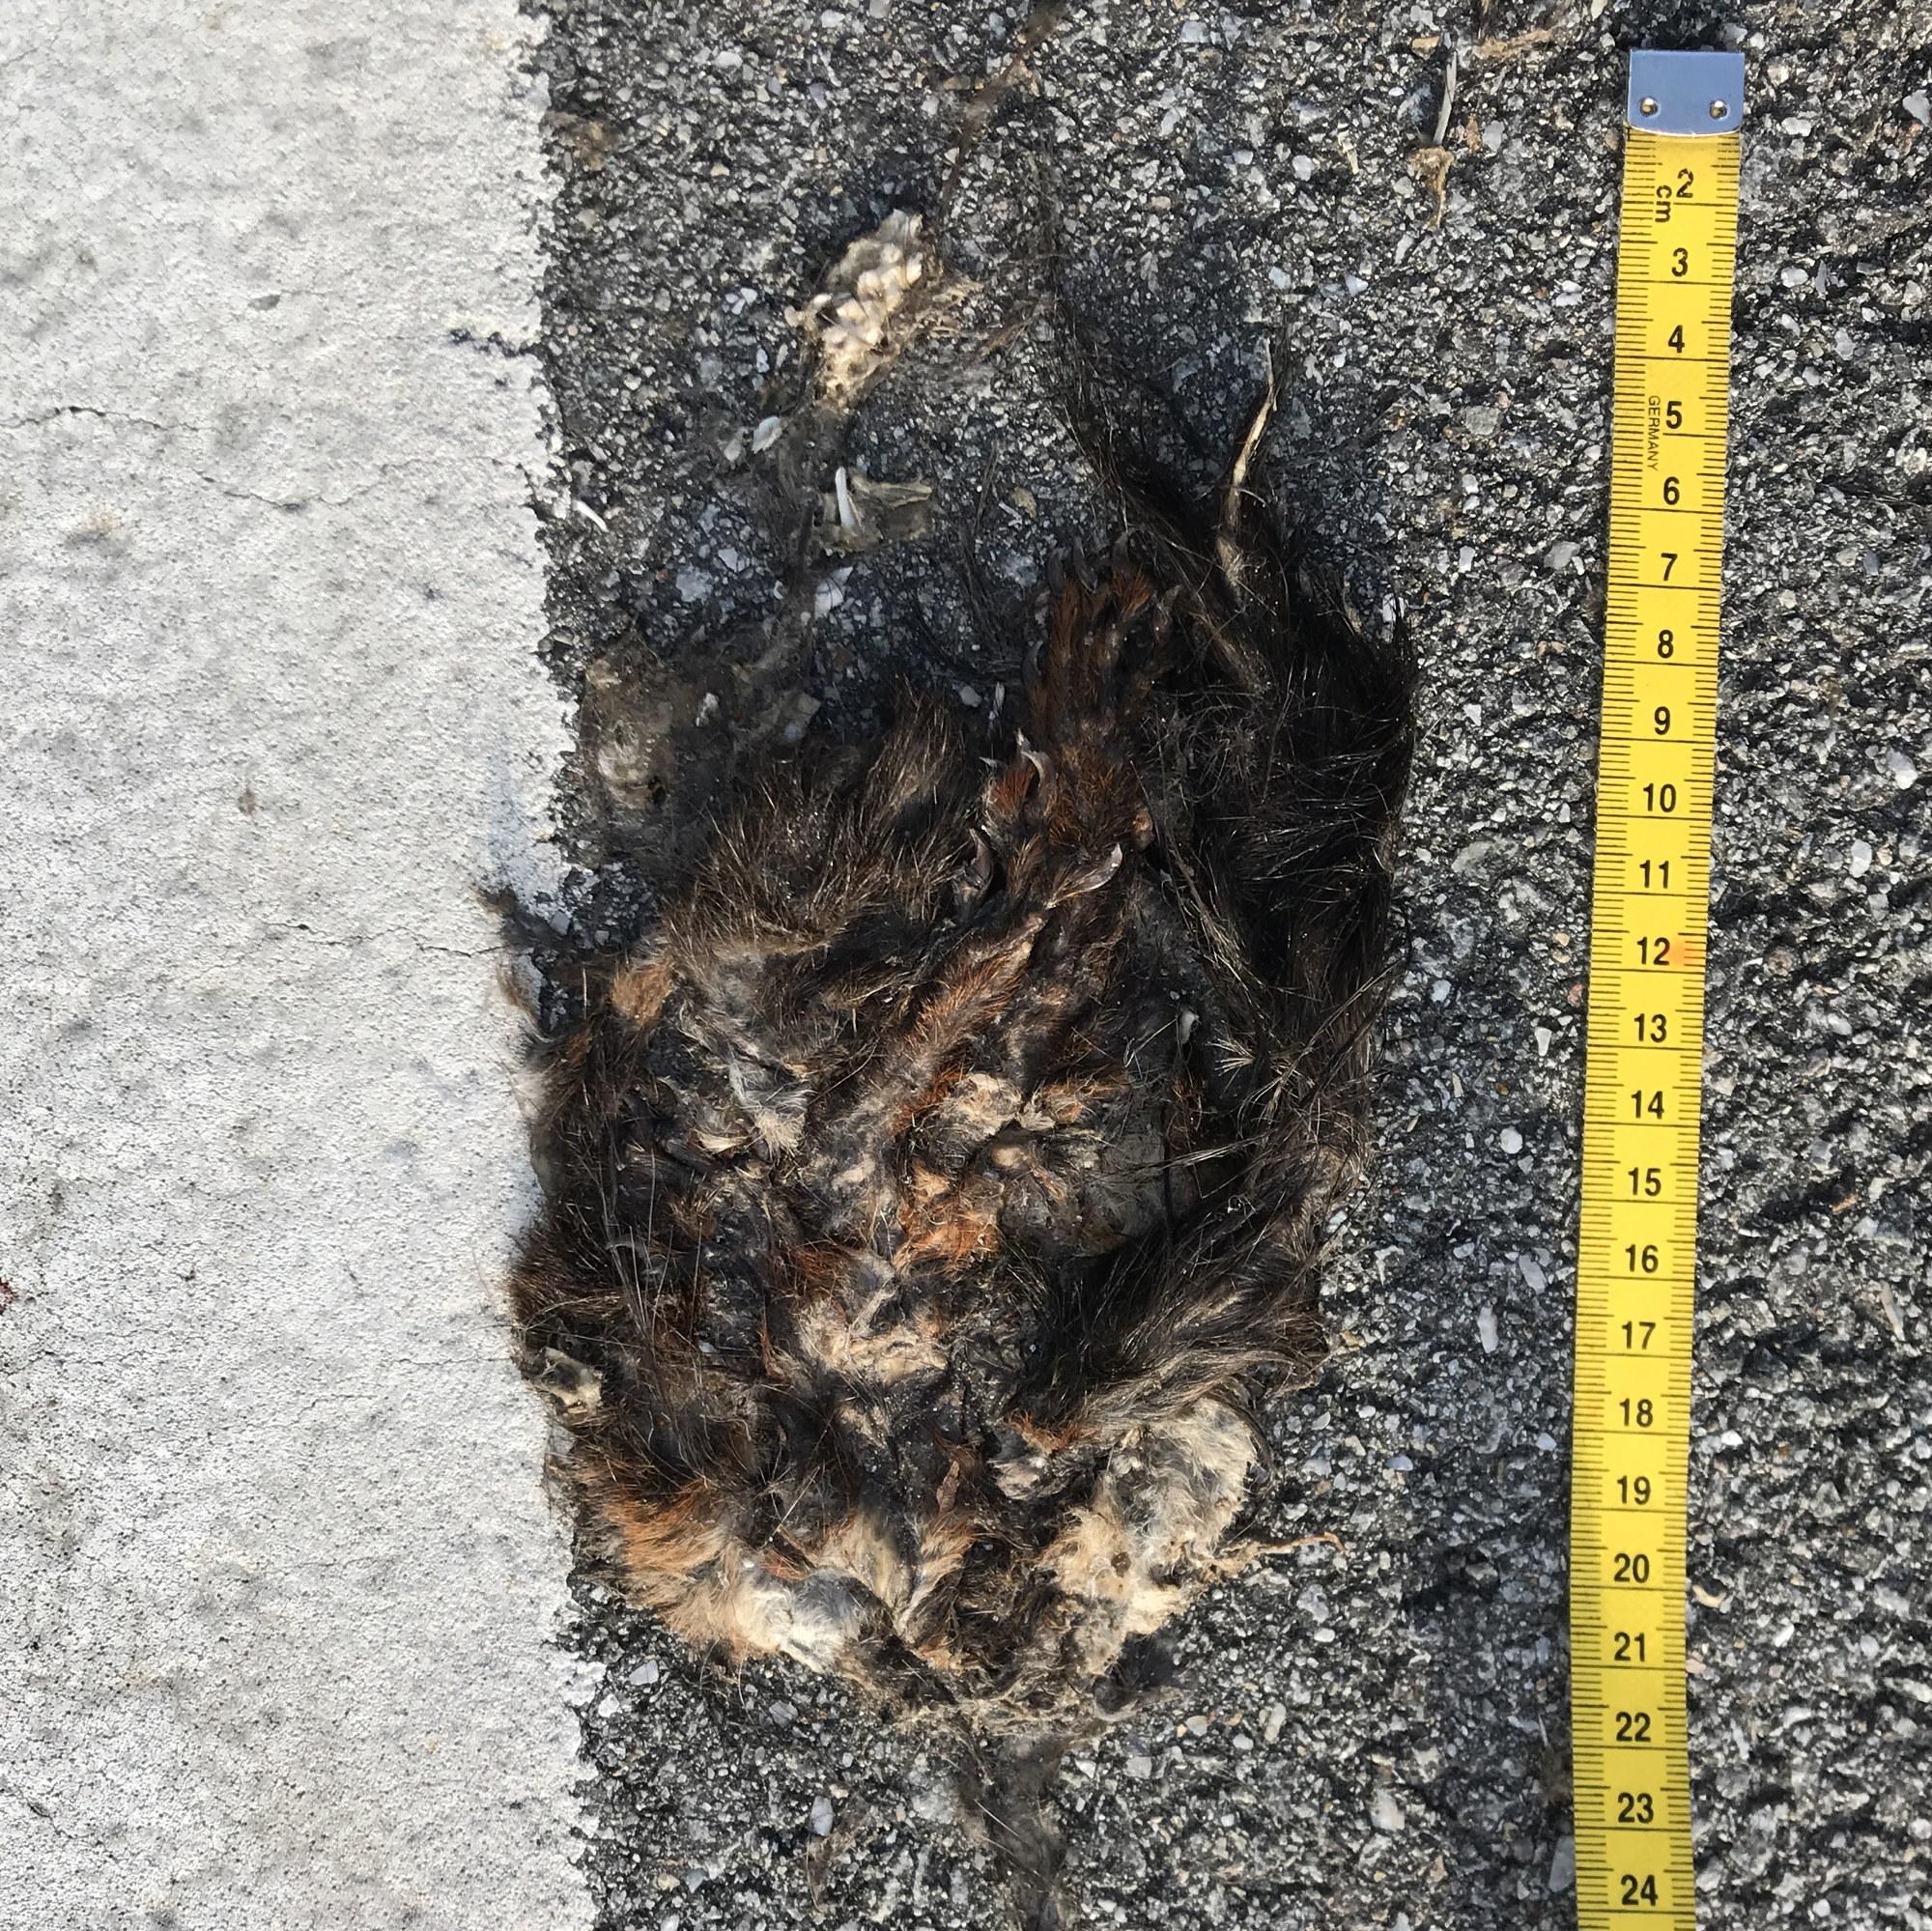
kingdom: Animalia
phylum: Chordata
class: Mammalia
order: Rodentia
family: Sciuridae
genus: Sciurus
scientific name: Sciurus vulgaris
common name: Eurasian red squirrel
